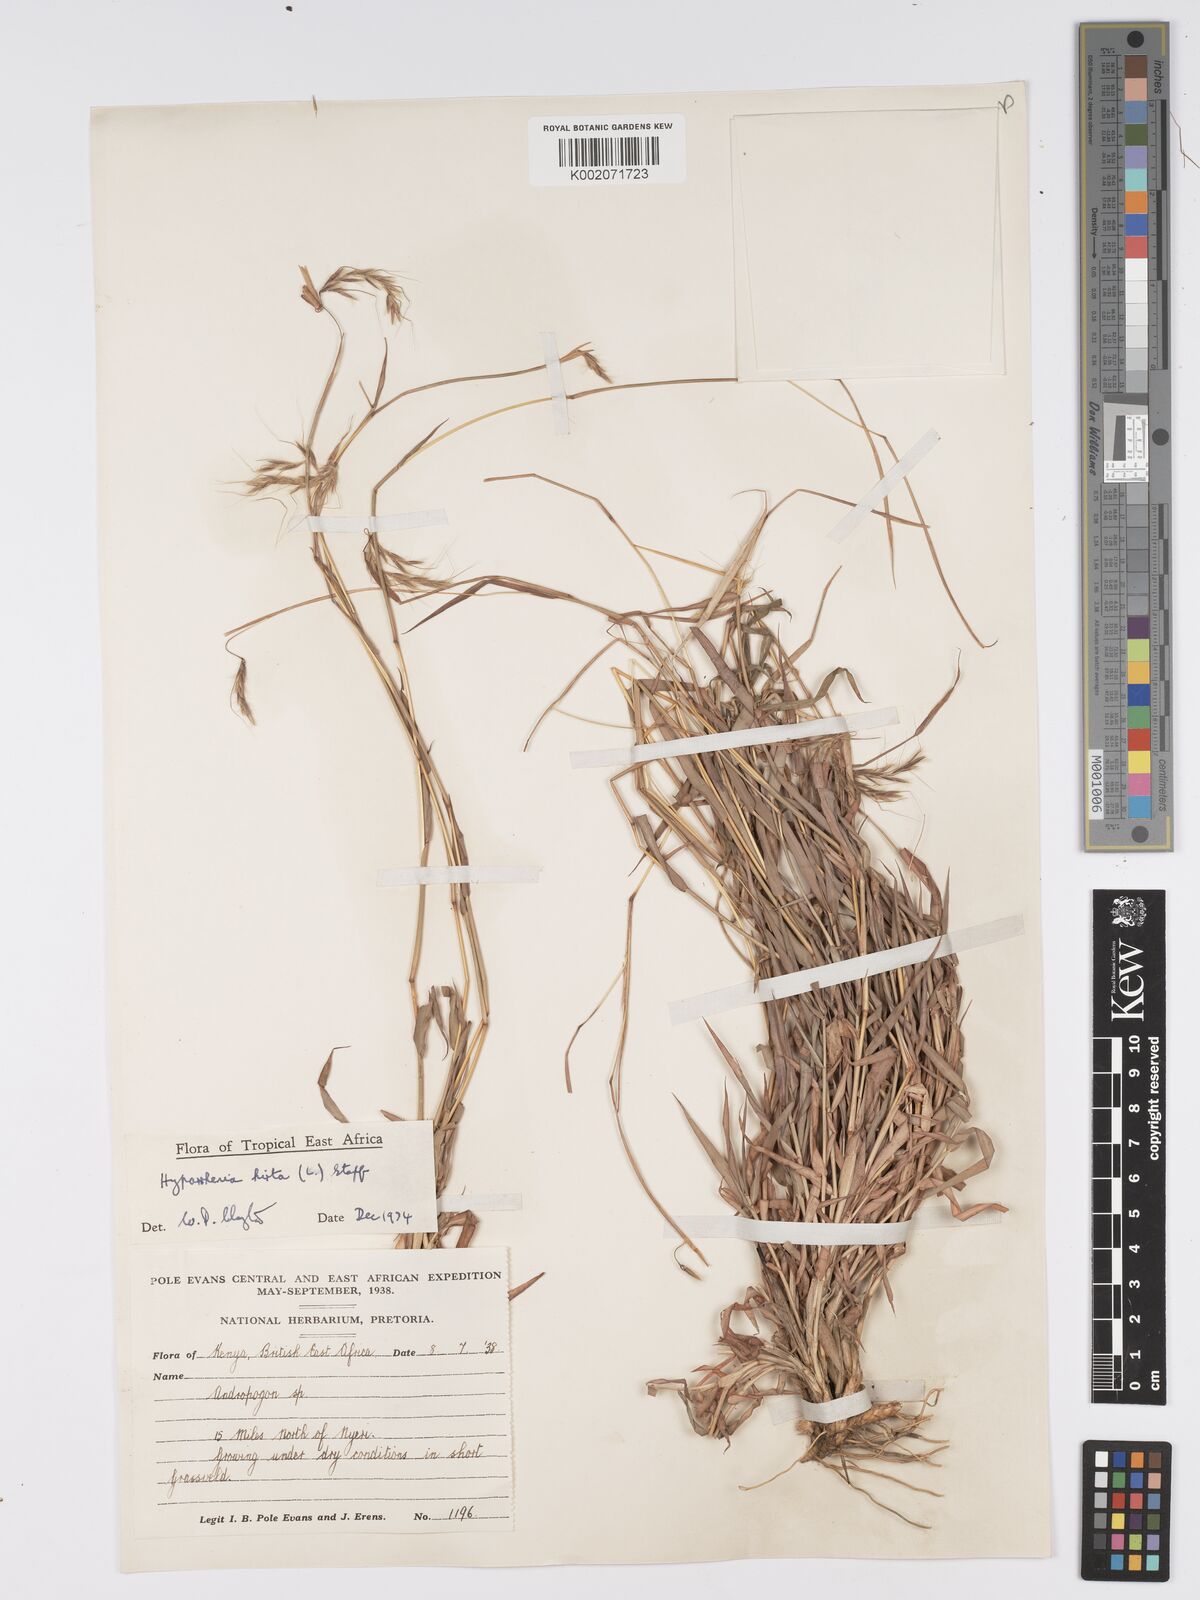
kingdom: Plantae
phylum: Tracheophyta
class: Liliopsida
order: Poales
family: Poaceae
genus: Hyparrhenia
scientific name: Hyparrhenia hirta
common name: Thatching grass
